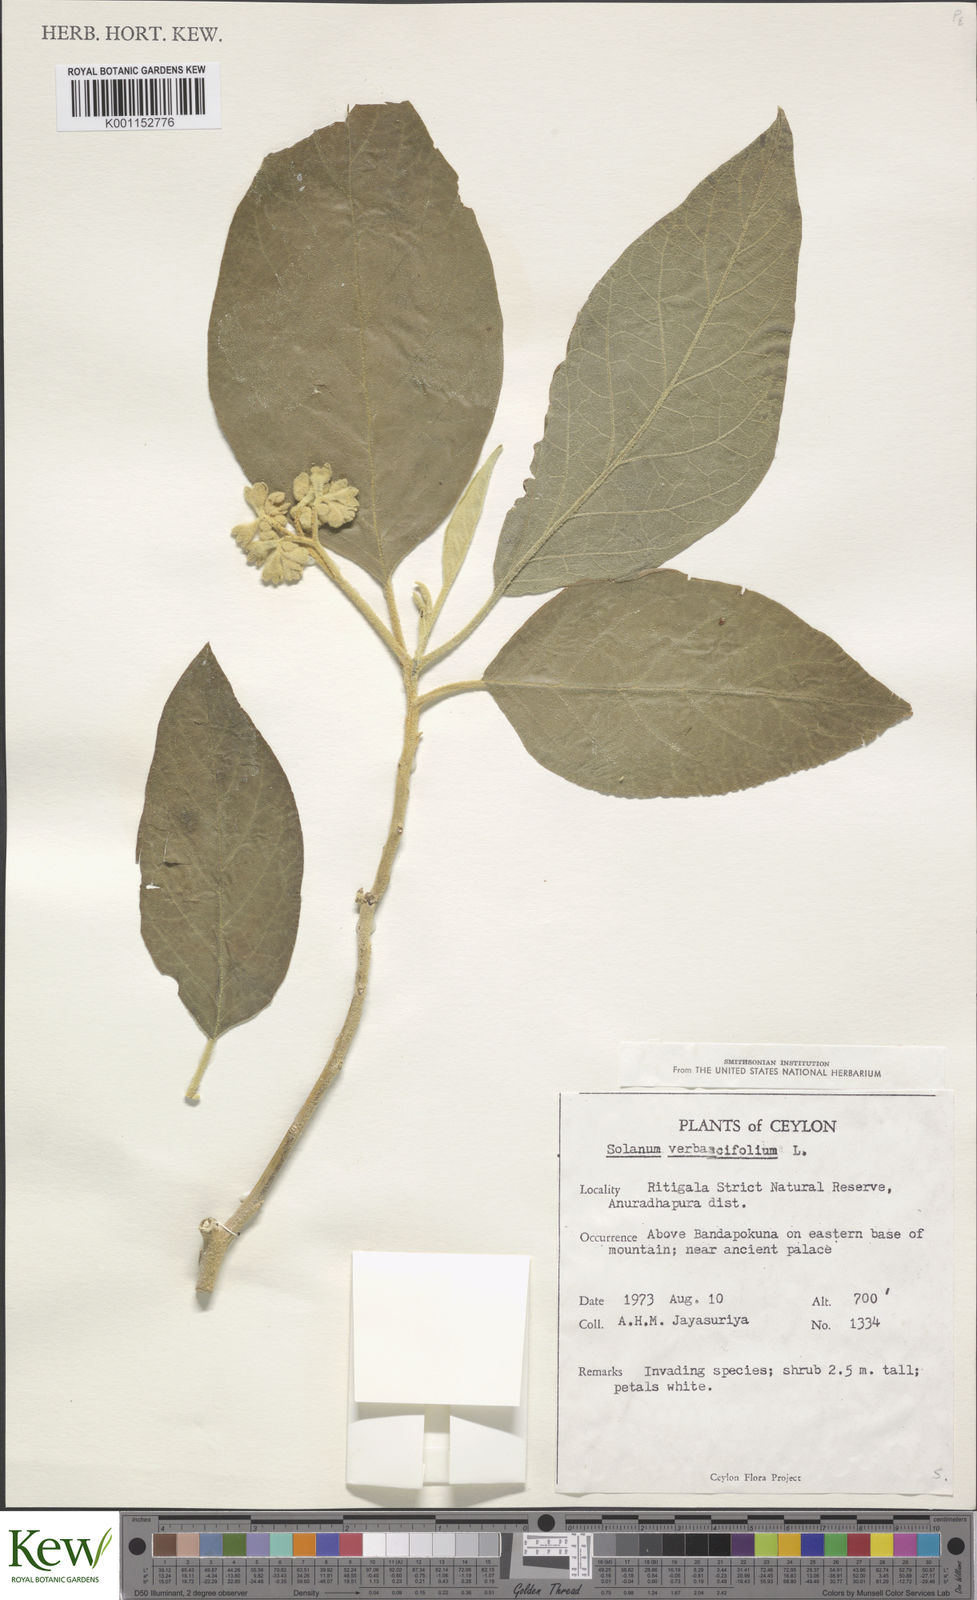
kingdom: Plantae
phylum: Tracheophyta
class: Magnoliopsida
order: Solanales
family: Solanaceae
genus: Solanum
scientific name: Solanum erianthum
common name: Tobacco-tree
